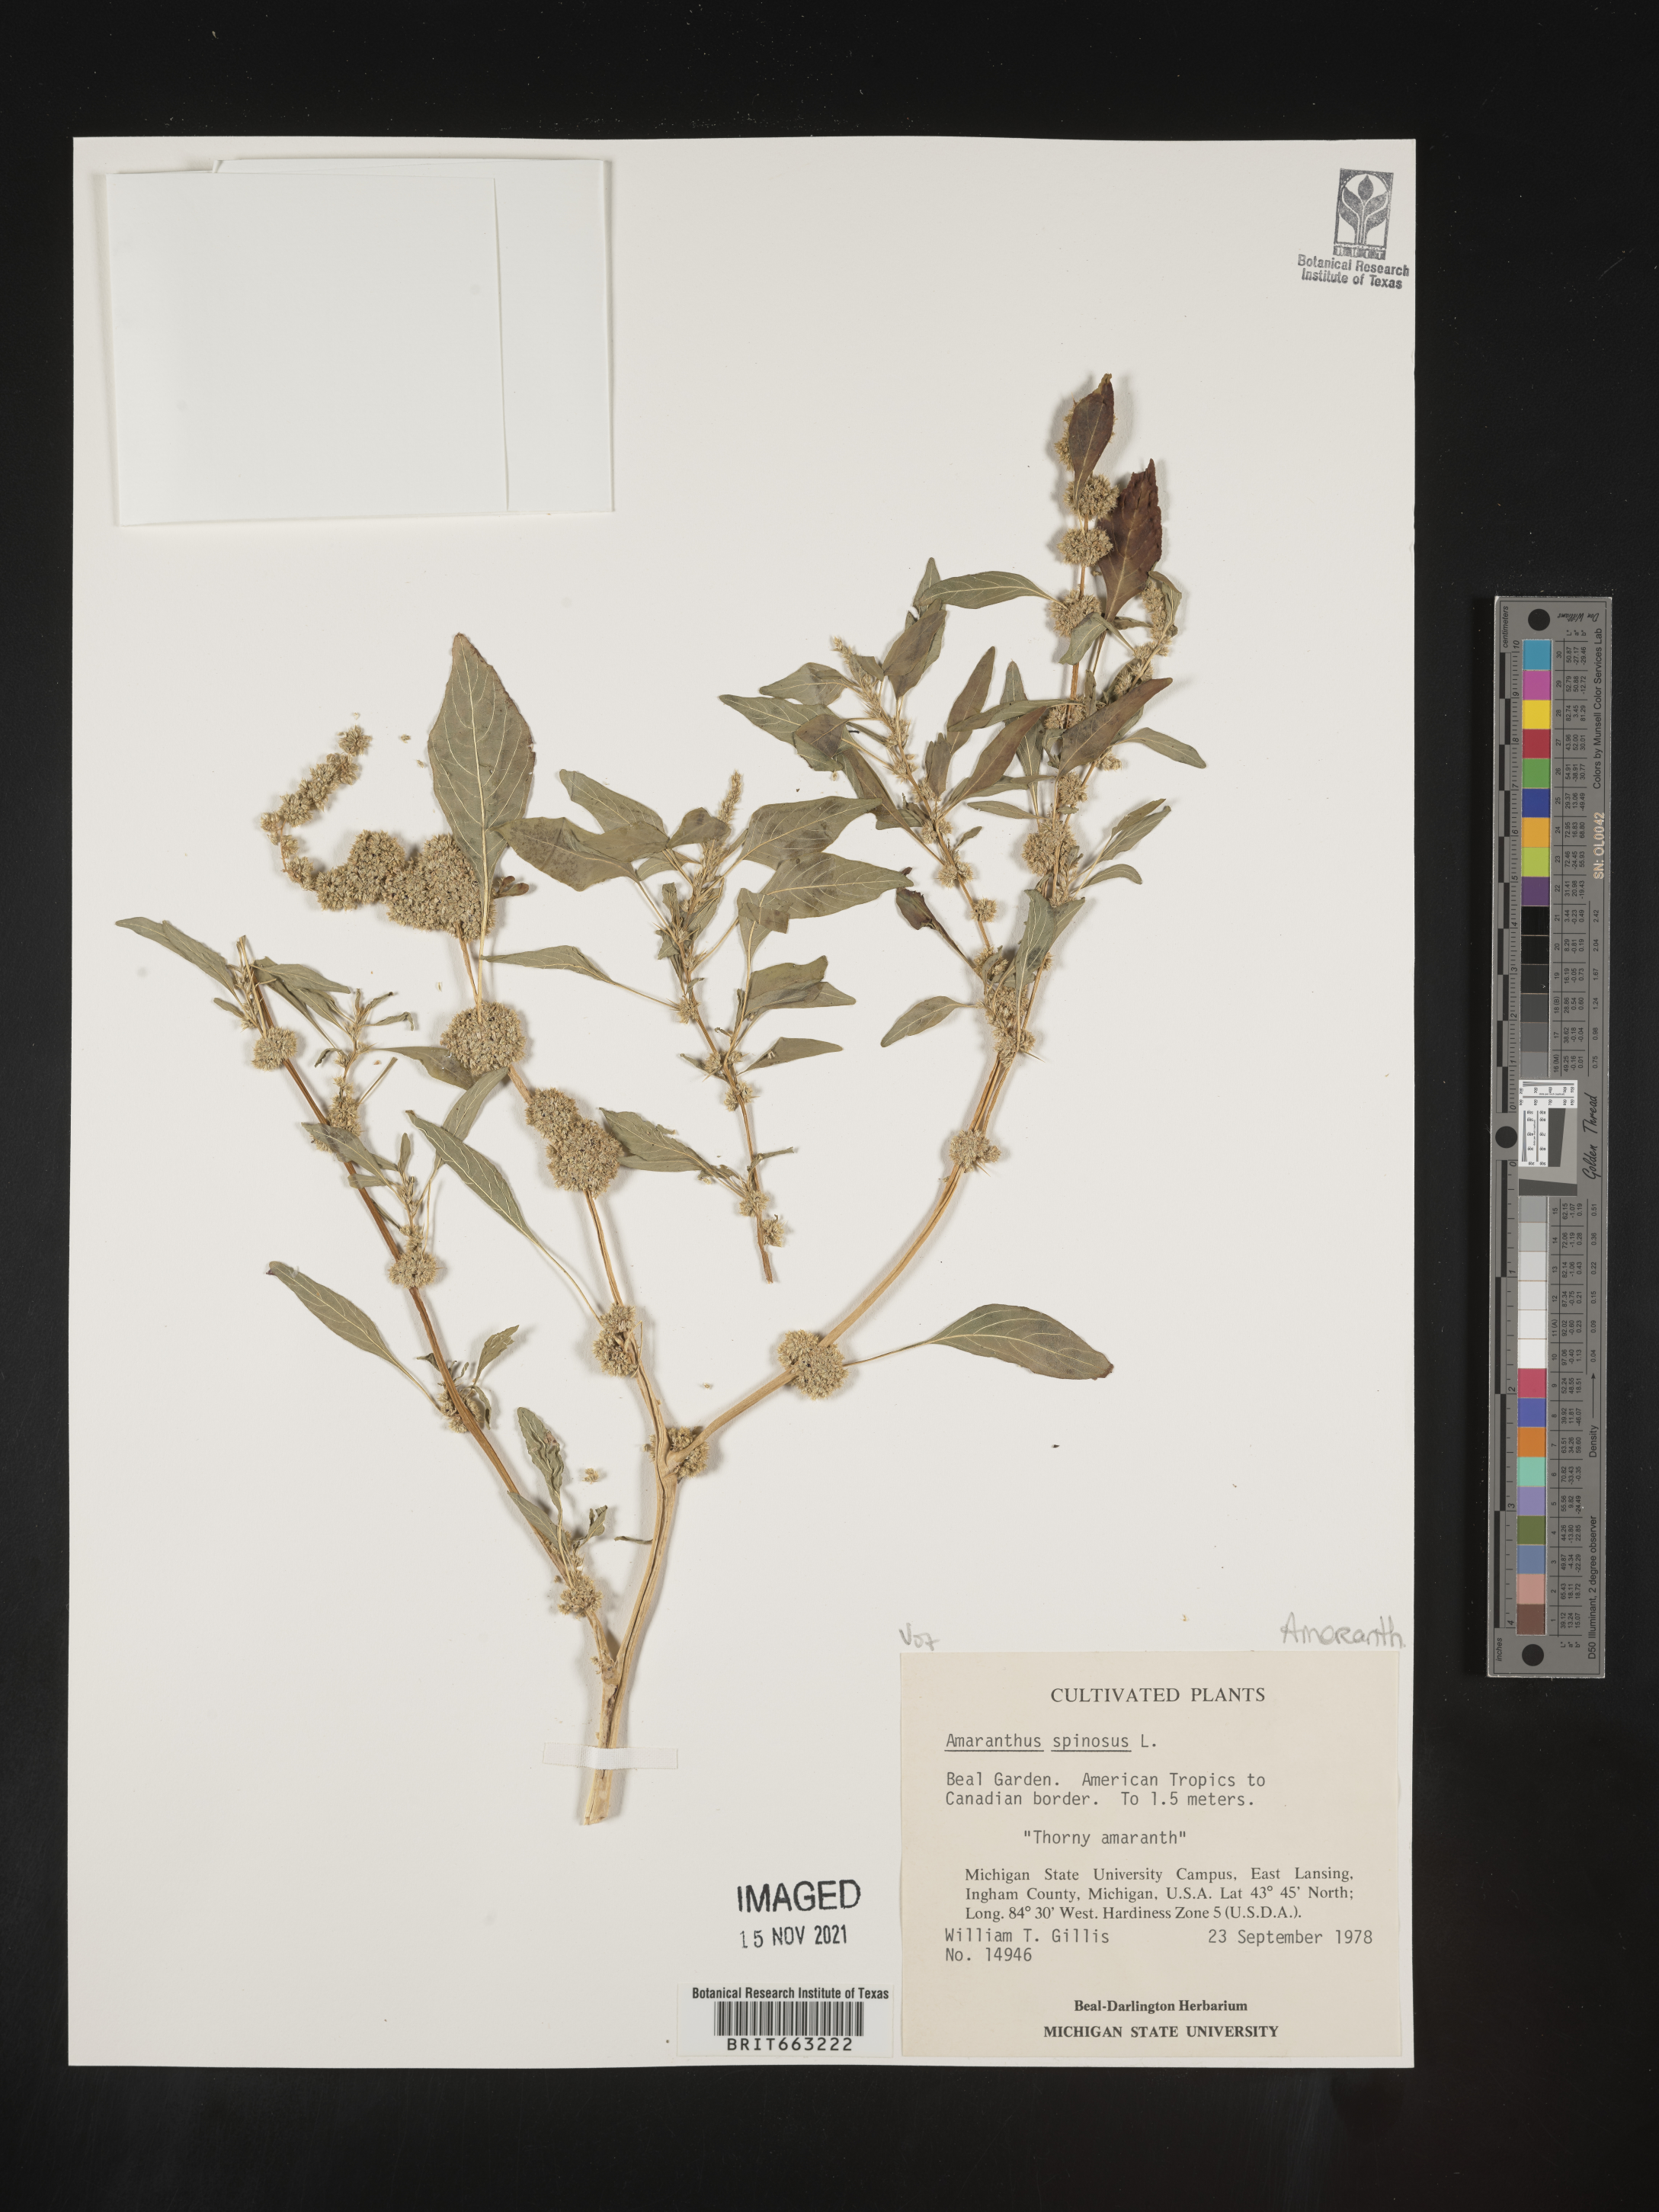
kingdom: Plantae
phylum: Tracheophyta
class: Magnoliopsida
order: Caryophyllales
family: Amaranthaceae
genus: Amaranthus
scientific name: Amaranthus spinosus
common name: Spiny amaranth
